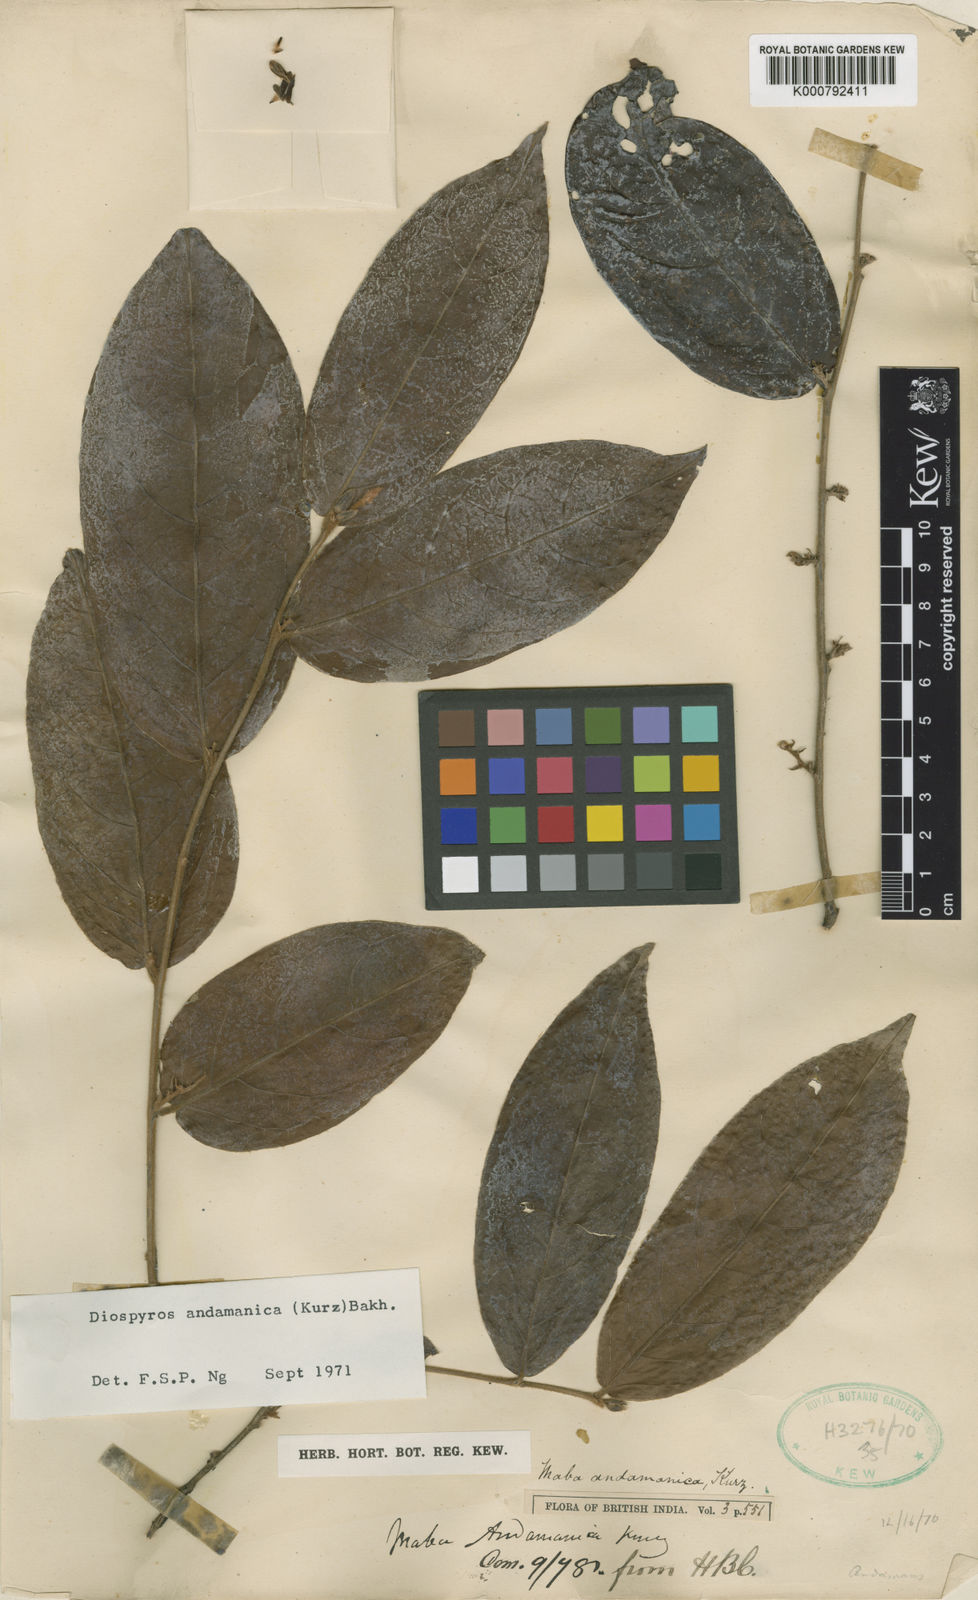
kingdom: Plantae
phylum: Tracheophyta
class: Magnoliopsida
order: Ericales
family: Ebenaceae
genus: Diospyros
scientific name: Diospyros andamanica
